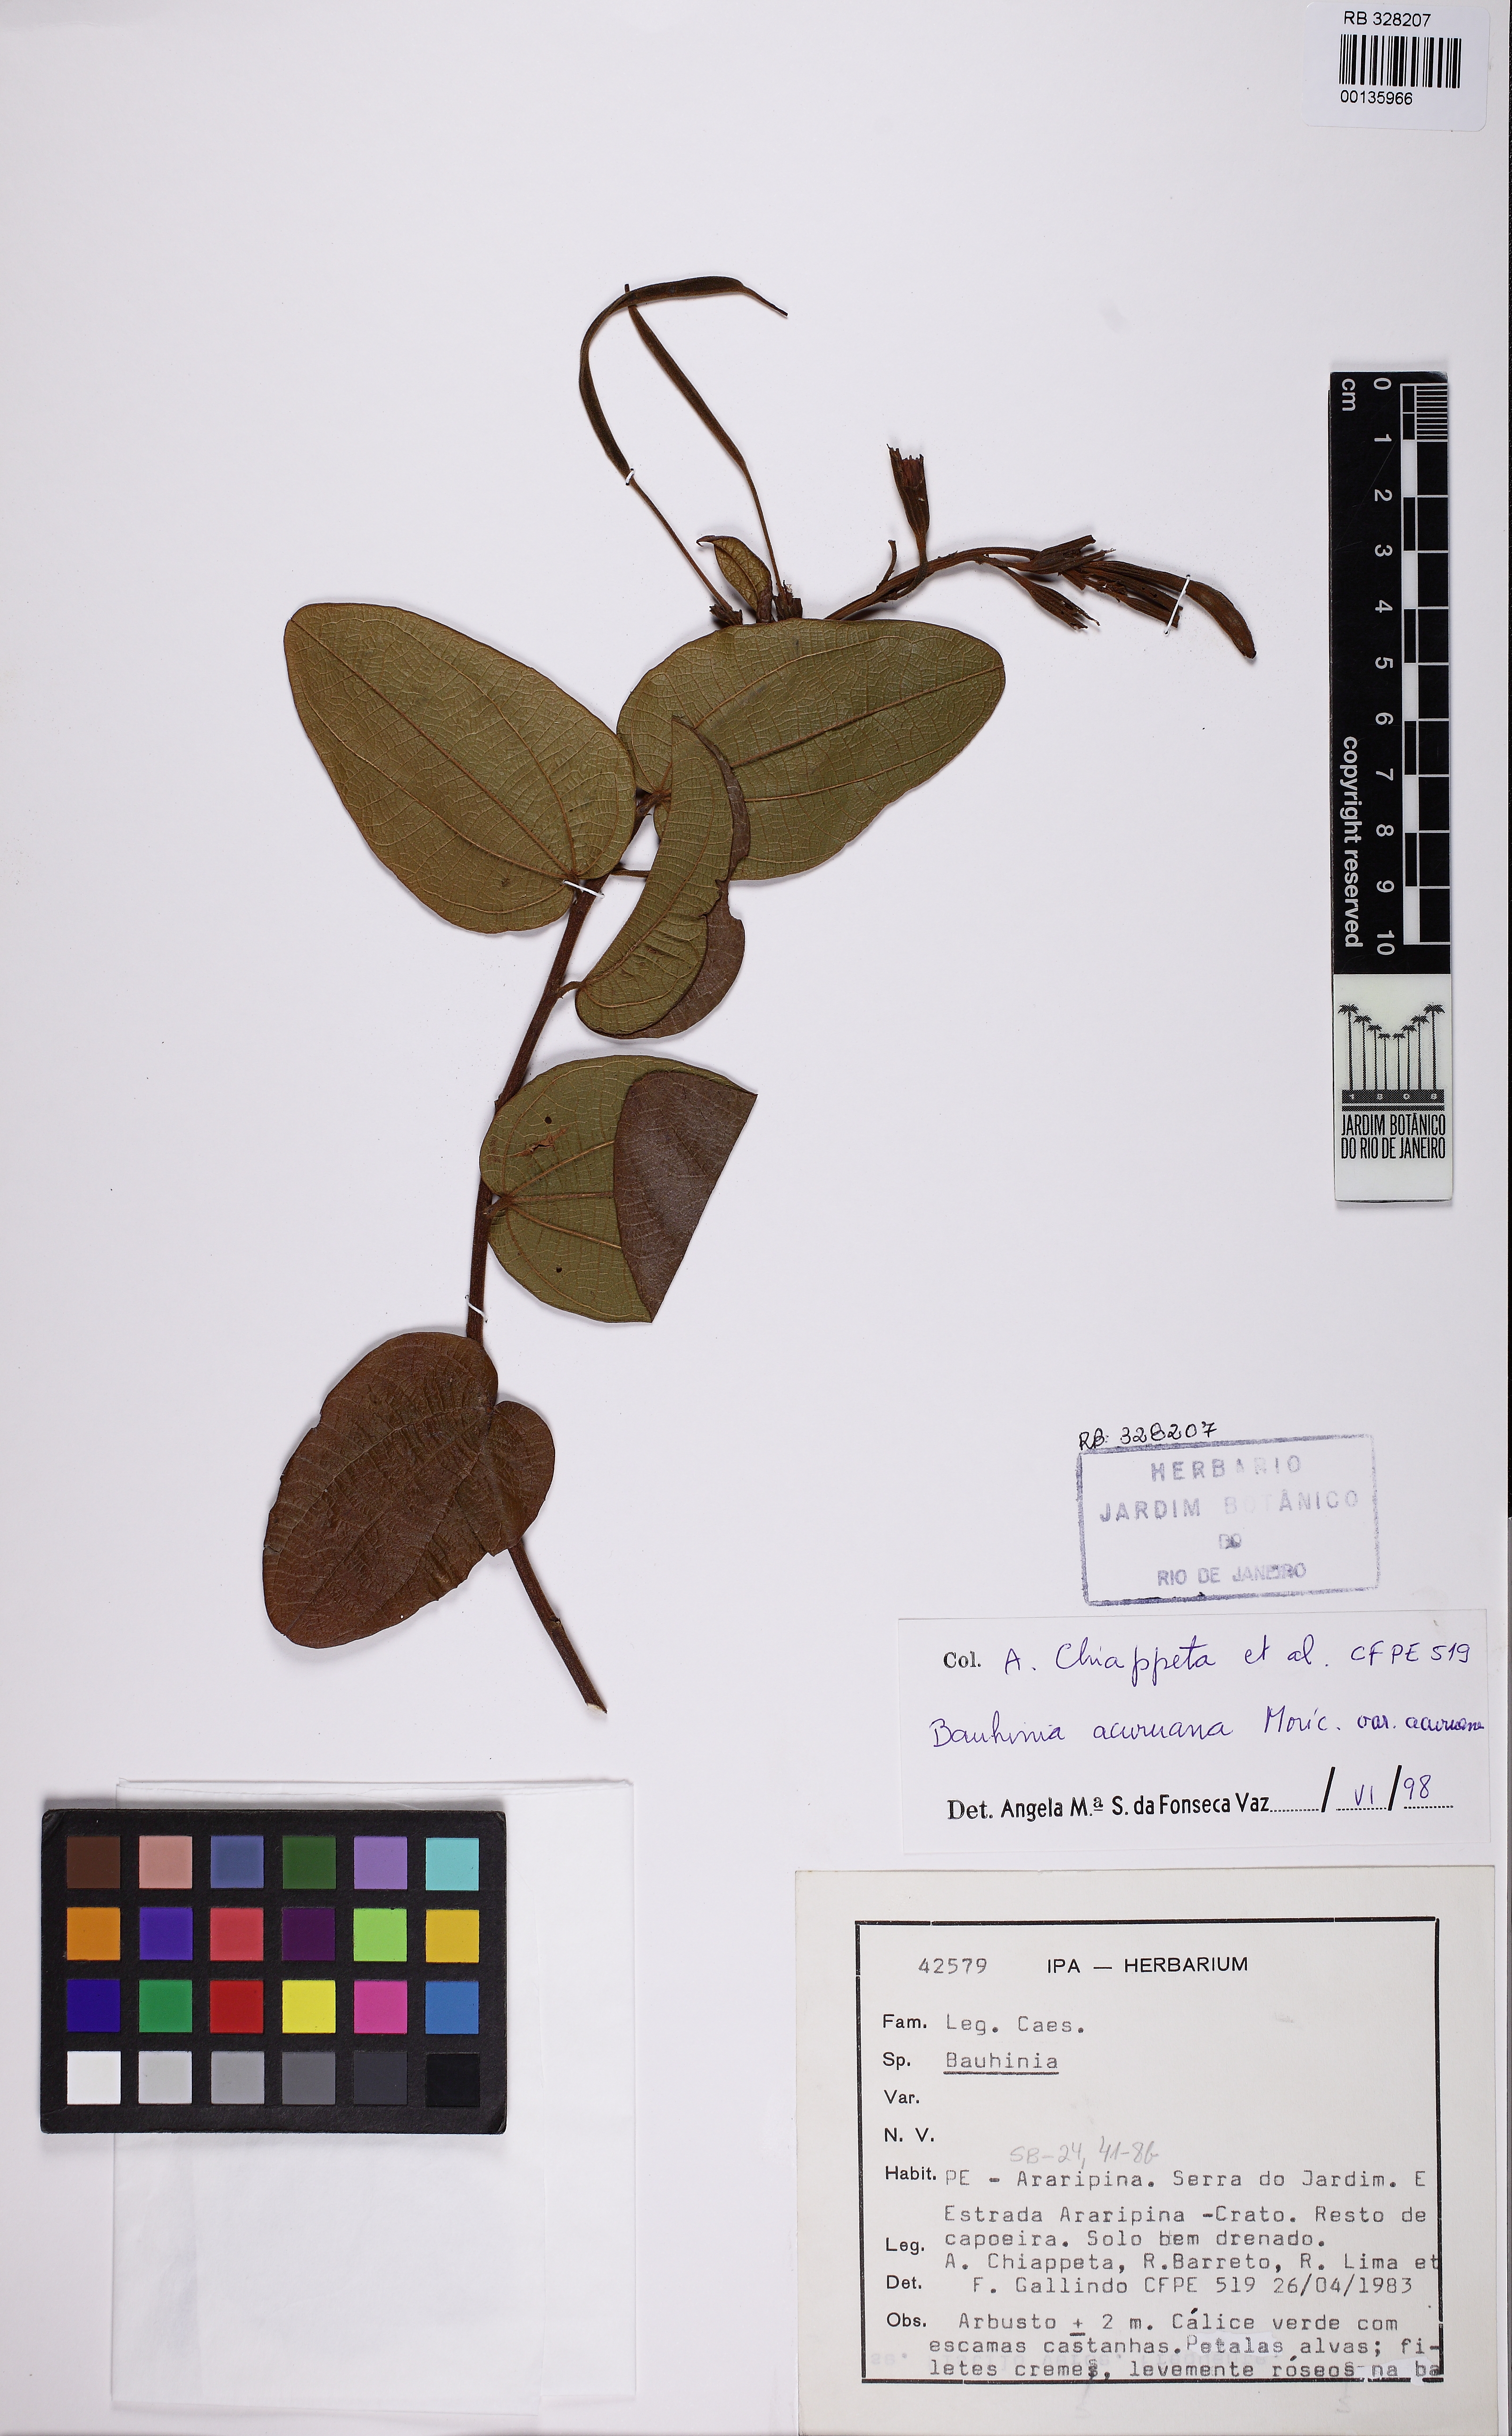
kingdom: Plantae
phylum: Tracheophyta
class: Magnoliopsida
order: Fabales
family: Fabaceae
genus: Bauhinia
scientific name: Bauhinia acuruana
